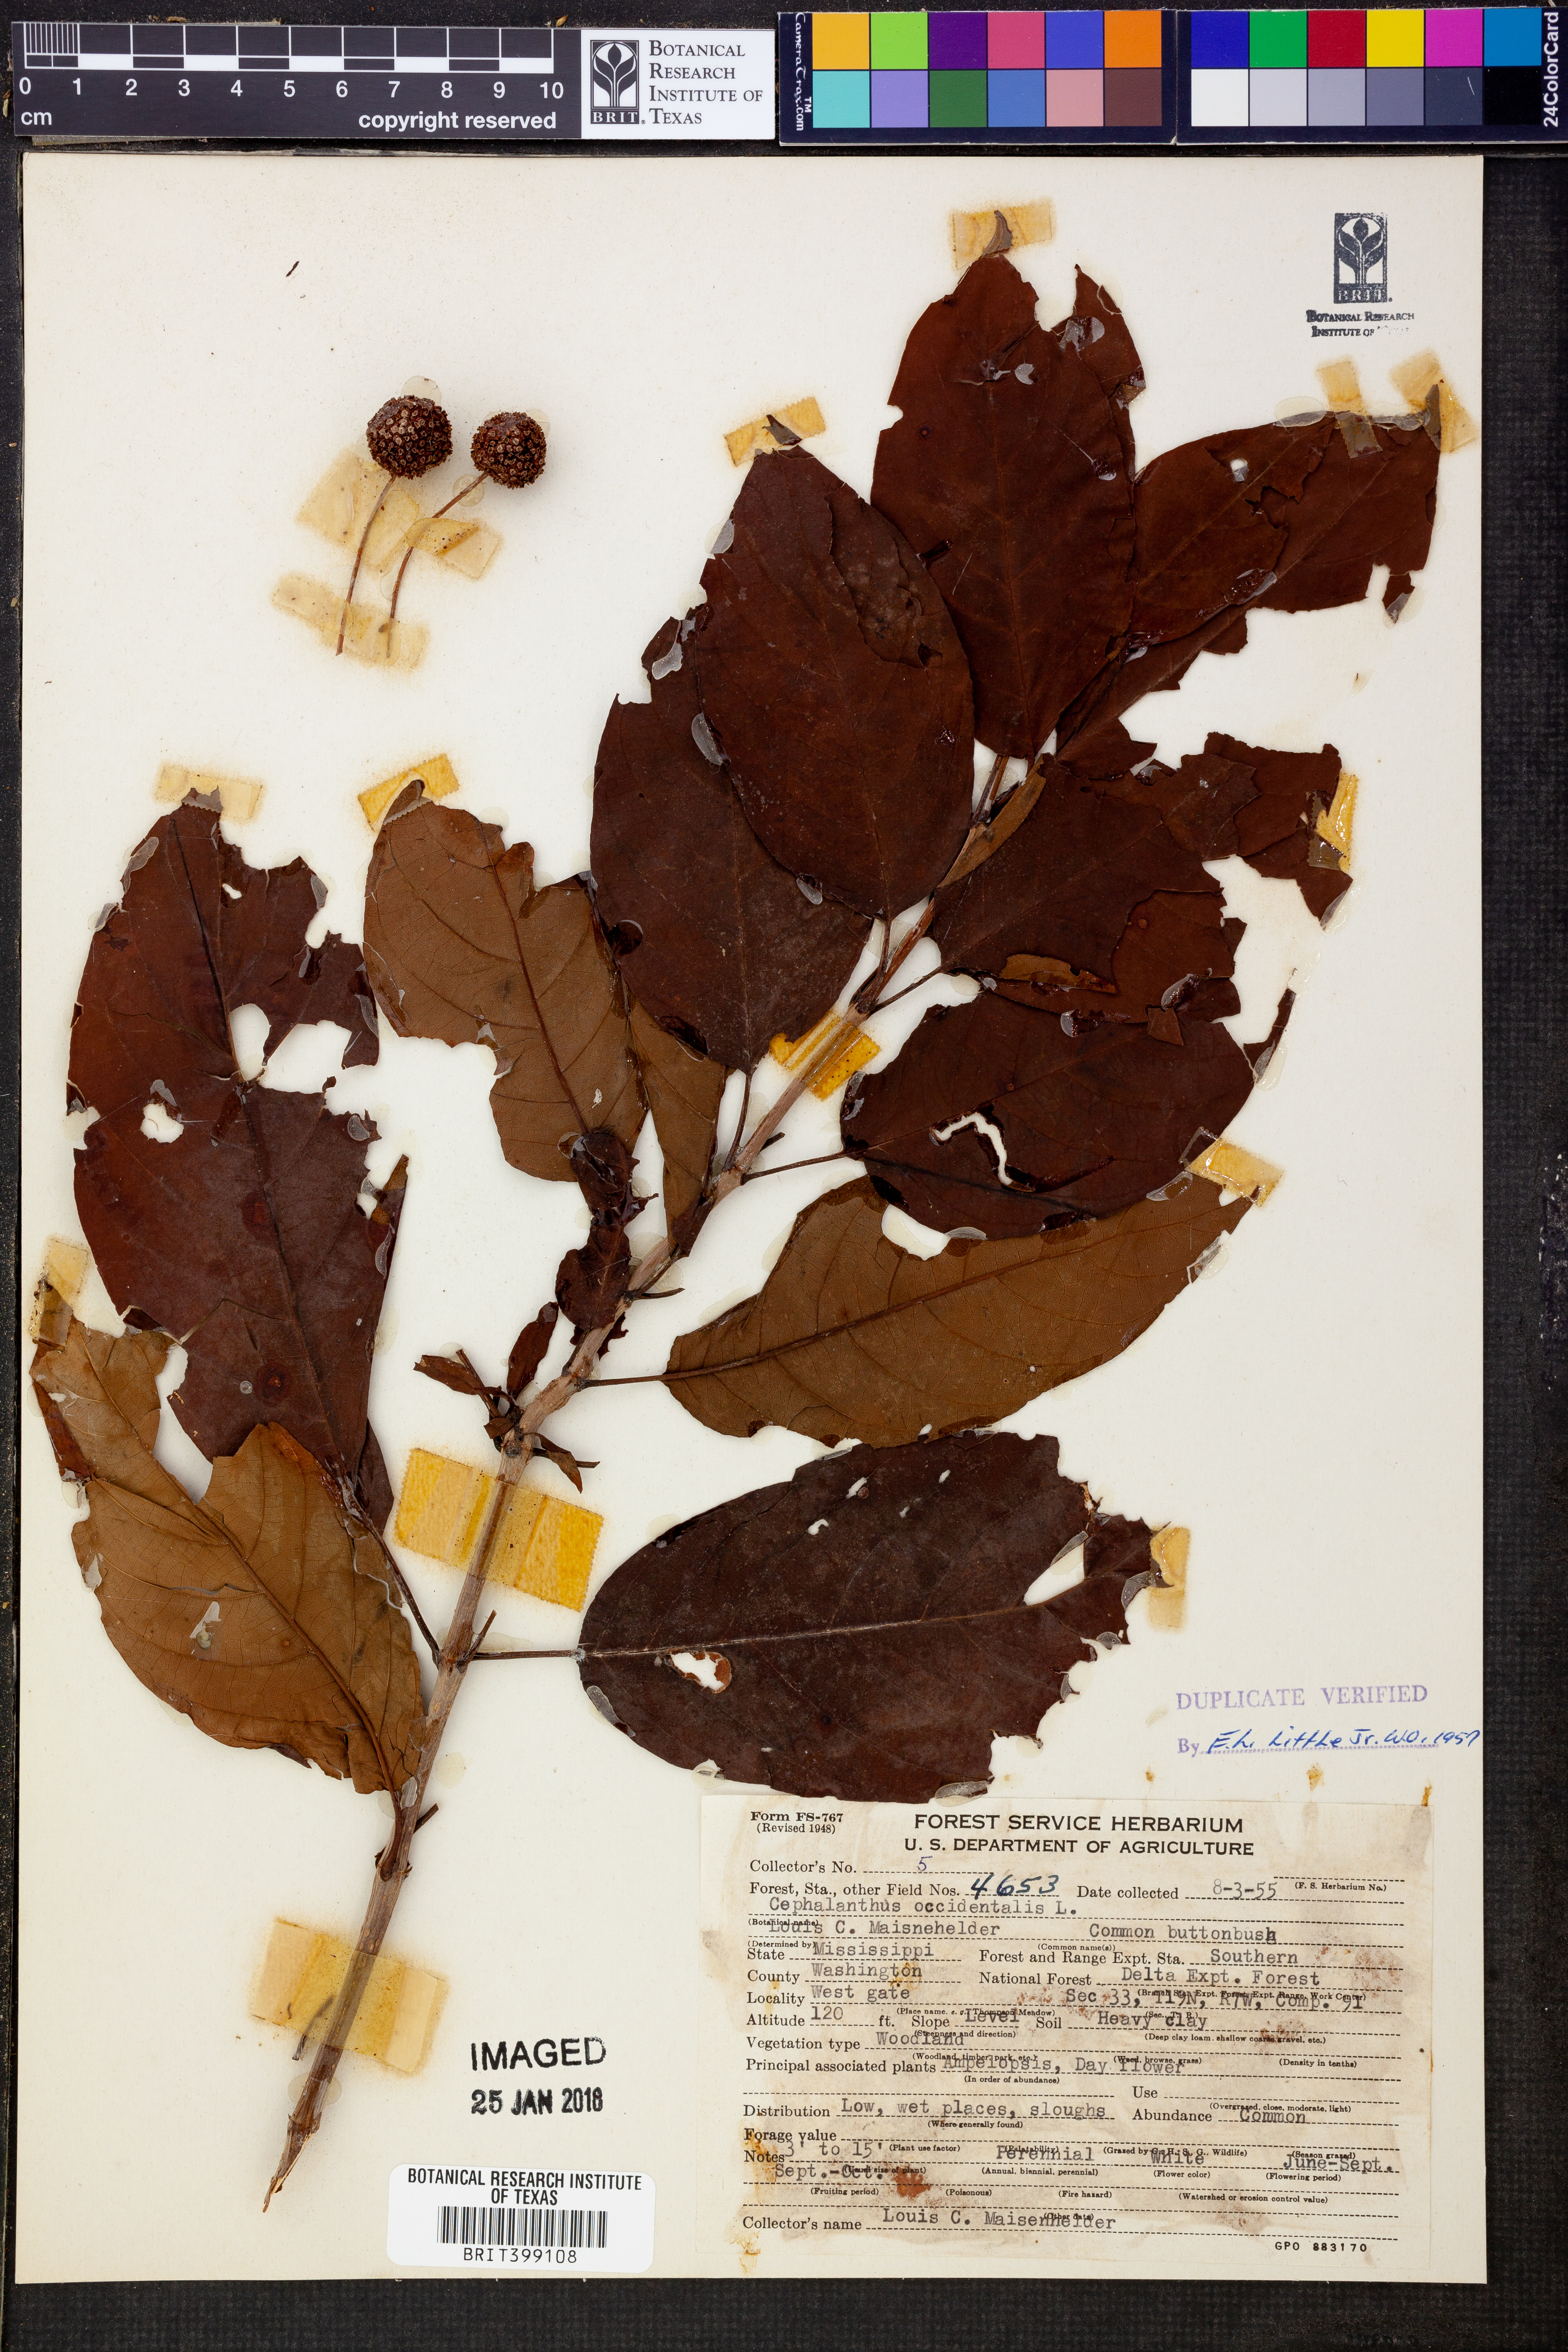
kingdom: Plantae
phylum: Tracheophyta
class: Magnoliopsida
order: Gentianales
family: Rubiaceae
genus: Cephalanthus
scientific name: Cephalanthus occidentalis
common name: Button-willow
